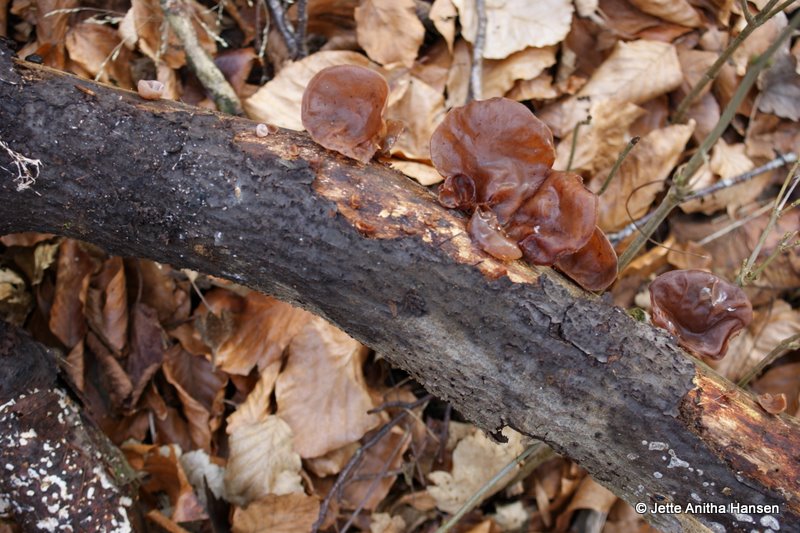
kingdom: Fungi
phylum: Basidiomycota
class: Agaricomycetes
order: Auriculariales
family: Auriculariaceae
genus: Auricularia
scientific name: Auricularia auricula-judae
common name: almindelig judasøre
